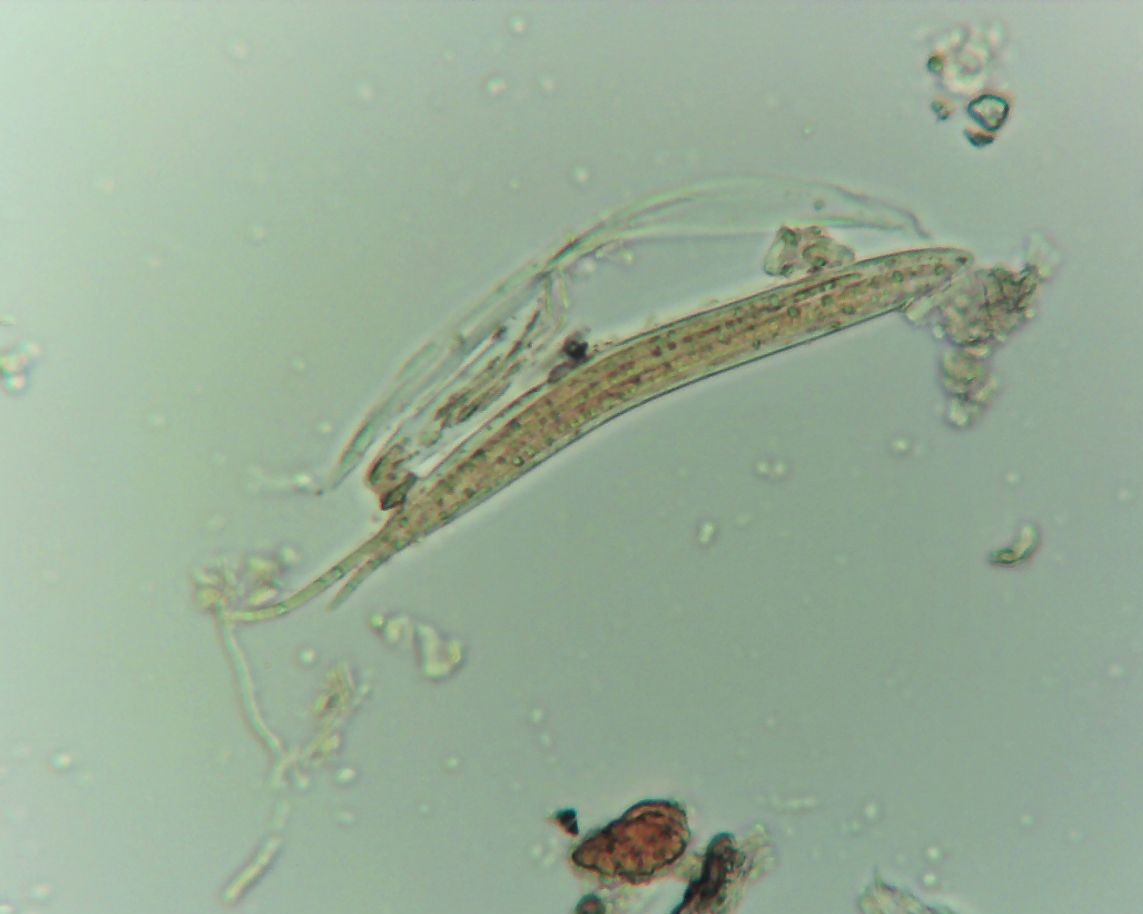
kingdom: Fungi
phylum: Ascomycota
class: Leotiomycetes
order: Rhytismatales
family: Rhytismataceae
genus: Lophodermium
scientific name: Lophodermium
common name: fureplet
